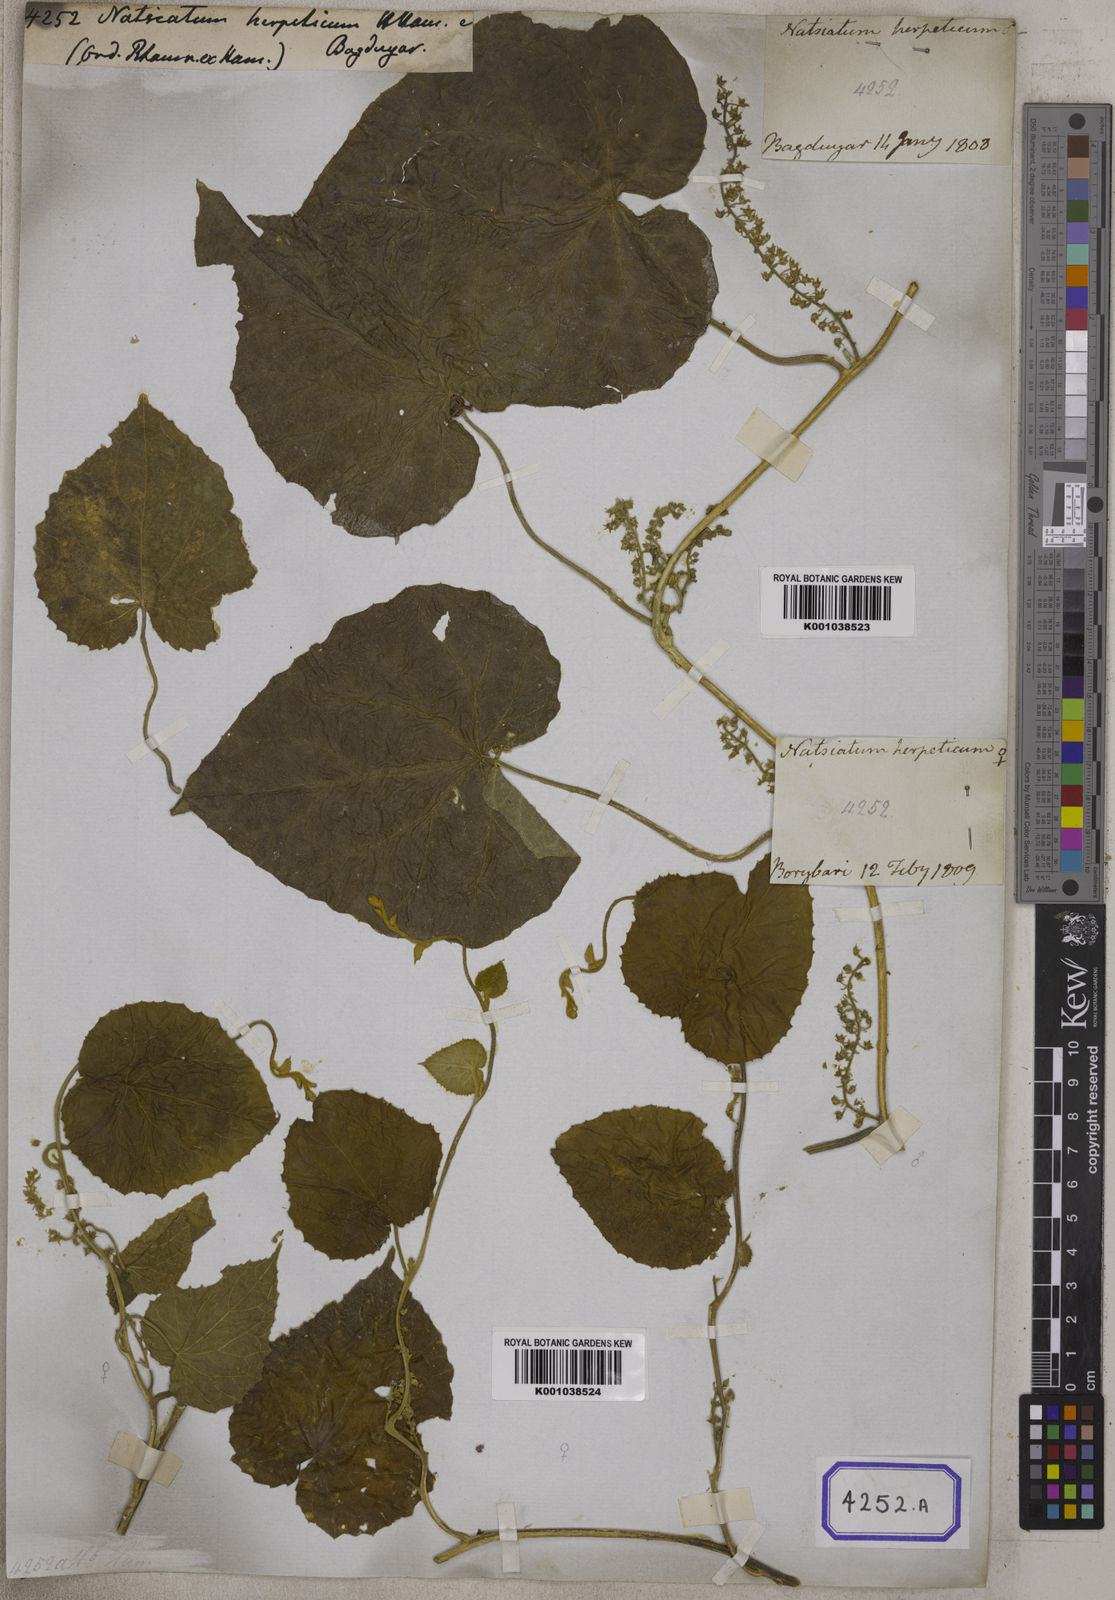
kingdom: Plantae
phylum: Tracheophyta
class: Magnoliopsida
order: Icacinales
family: Icacinaceae
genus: Natsiatum
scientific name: Natsiatum
